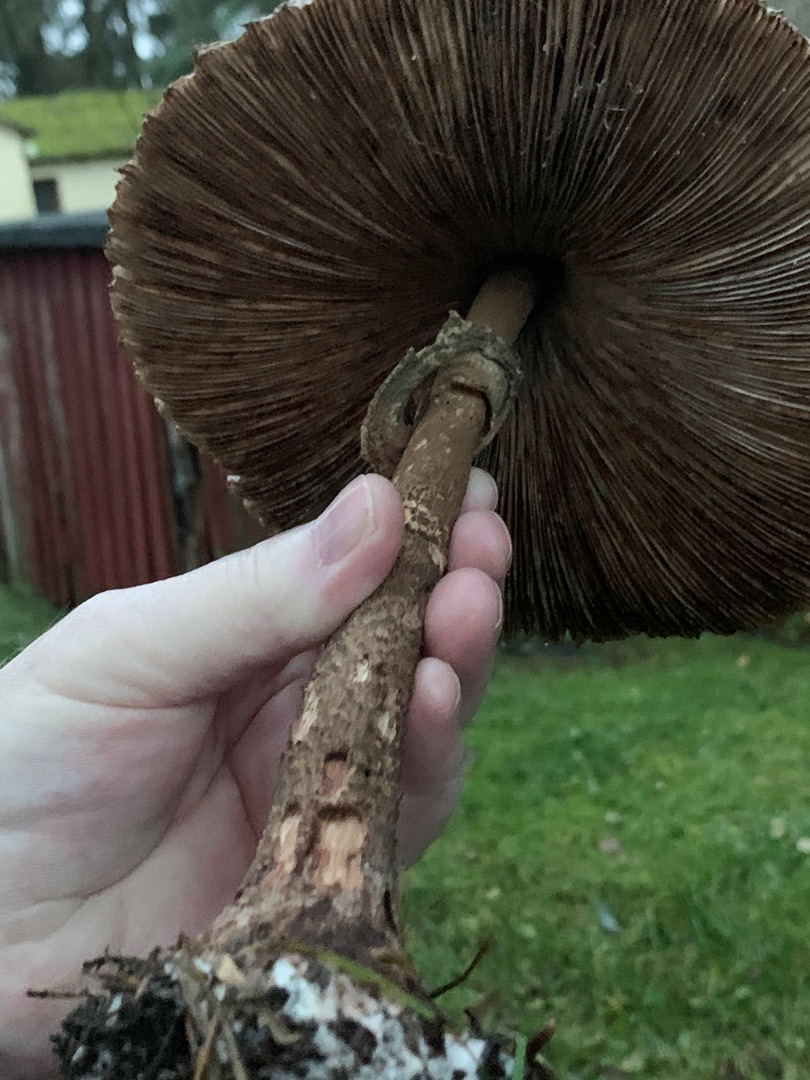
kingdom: Fungi
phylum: Basidiomycota
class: Agaricomycetes
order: Agaricales
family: Agaricaceae
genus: Macrolepiota
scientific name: Macrolepiota procera
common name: Stor kæmpeparasolhat
